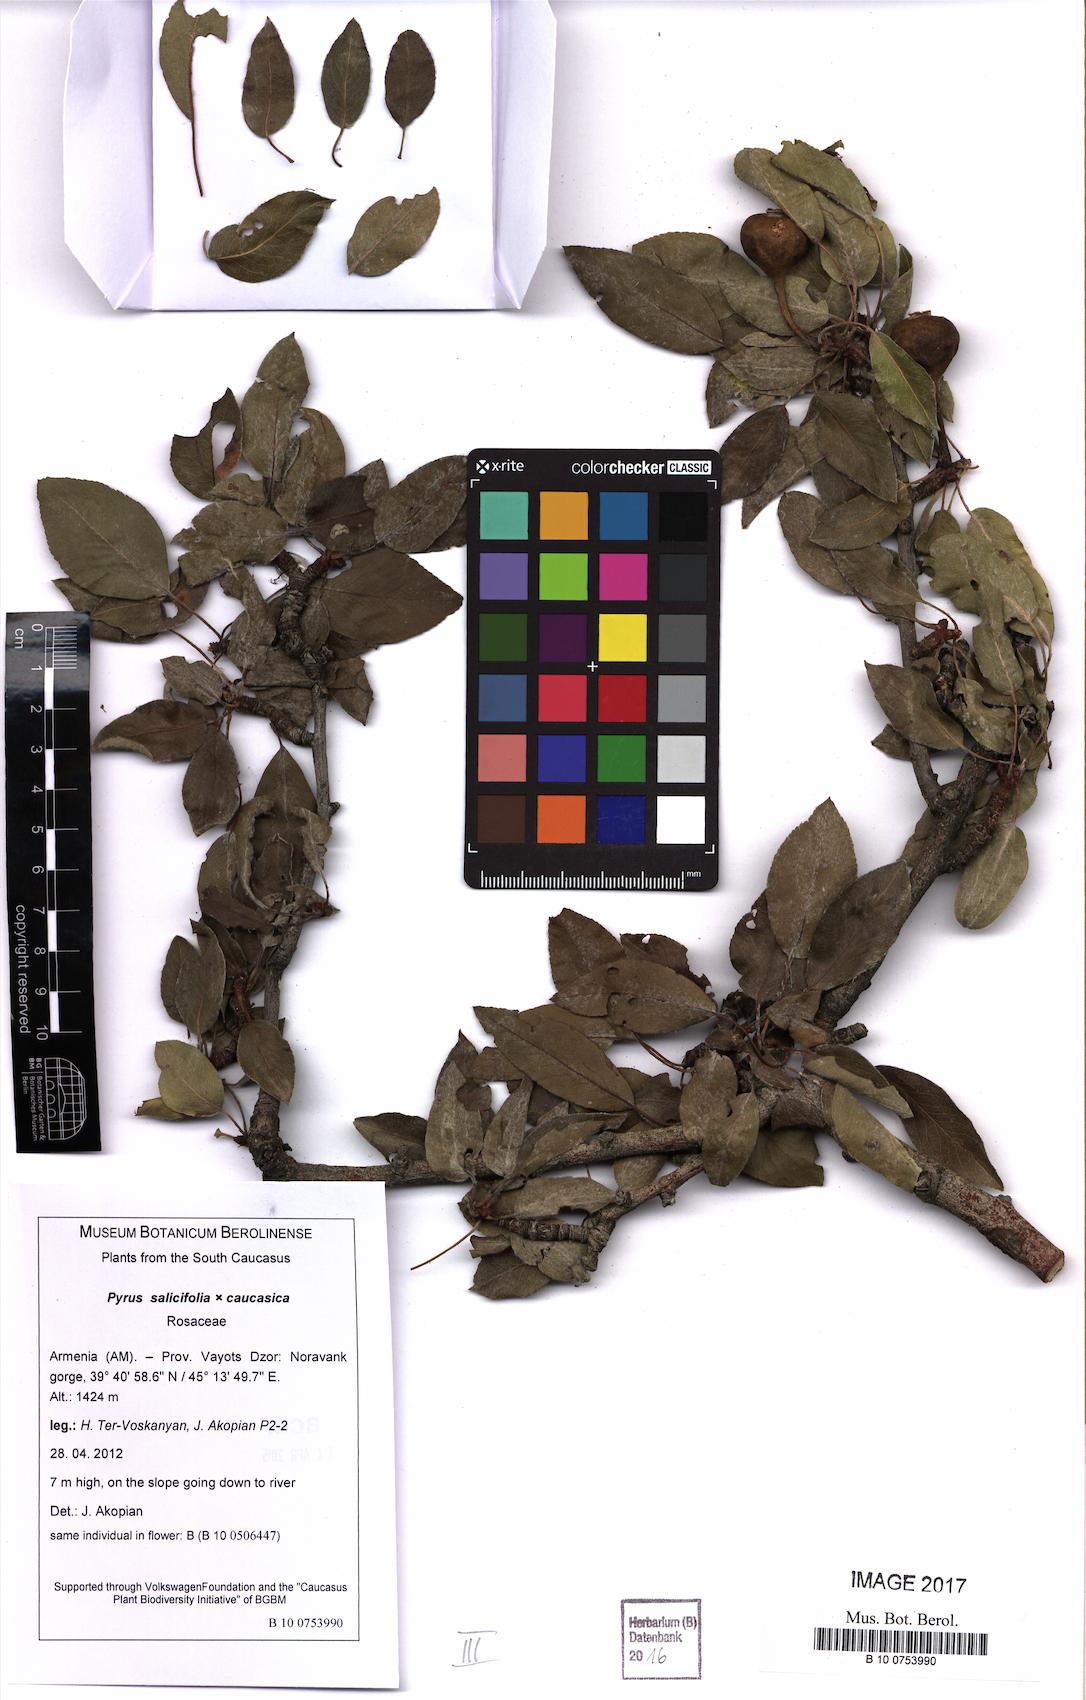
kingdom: Plantae
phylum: Tracheophyta
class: Magnoliopsida
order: Rosales
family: Rosaceae
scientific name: Rosaceae
